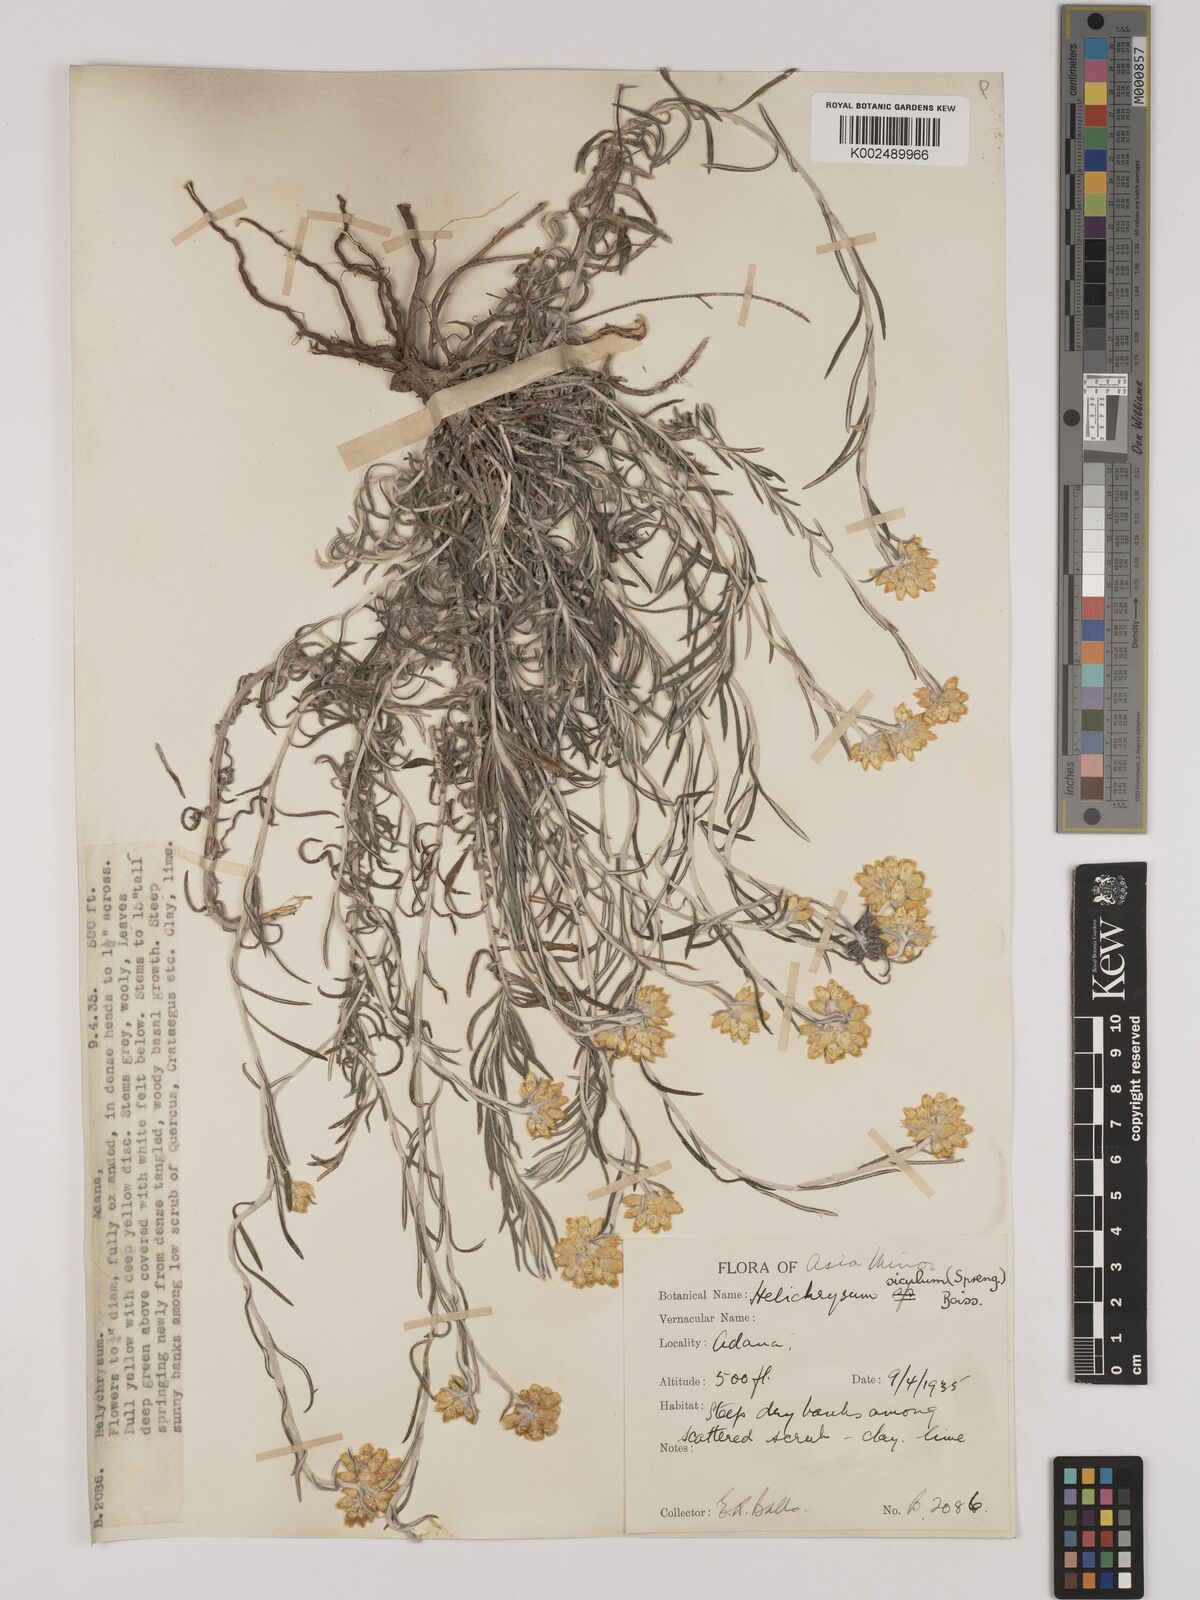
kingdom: Plantae
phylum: Tracheophyta
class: Magnoliopsida
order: Asterales
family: Asteraceae
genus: Helichrysum
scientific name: Helichrysum stoechas
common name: Goldilocks
